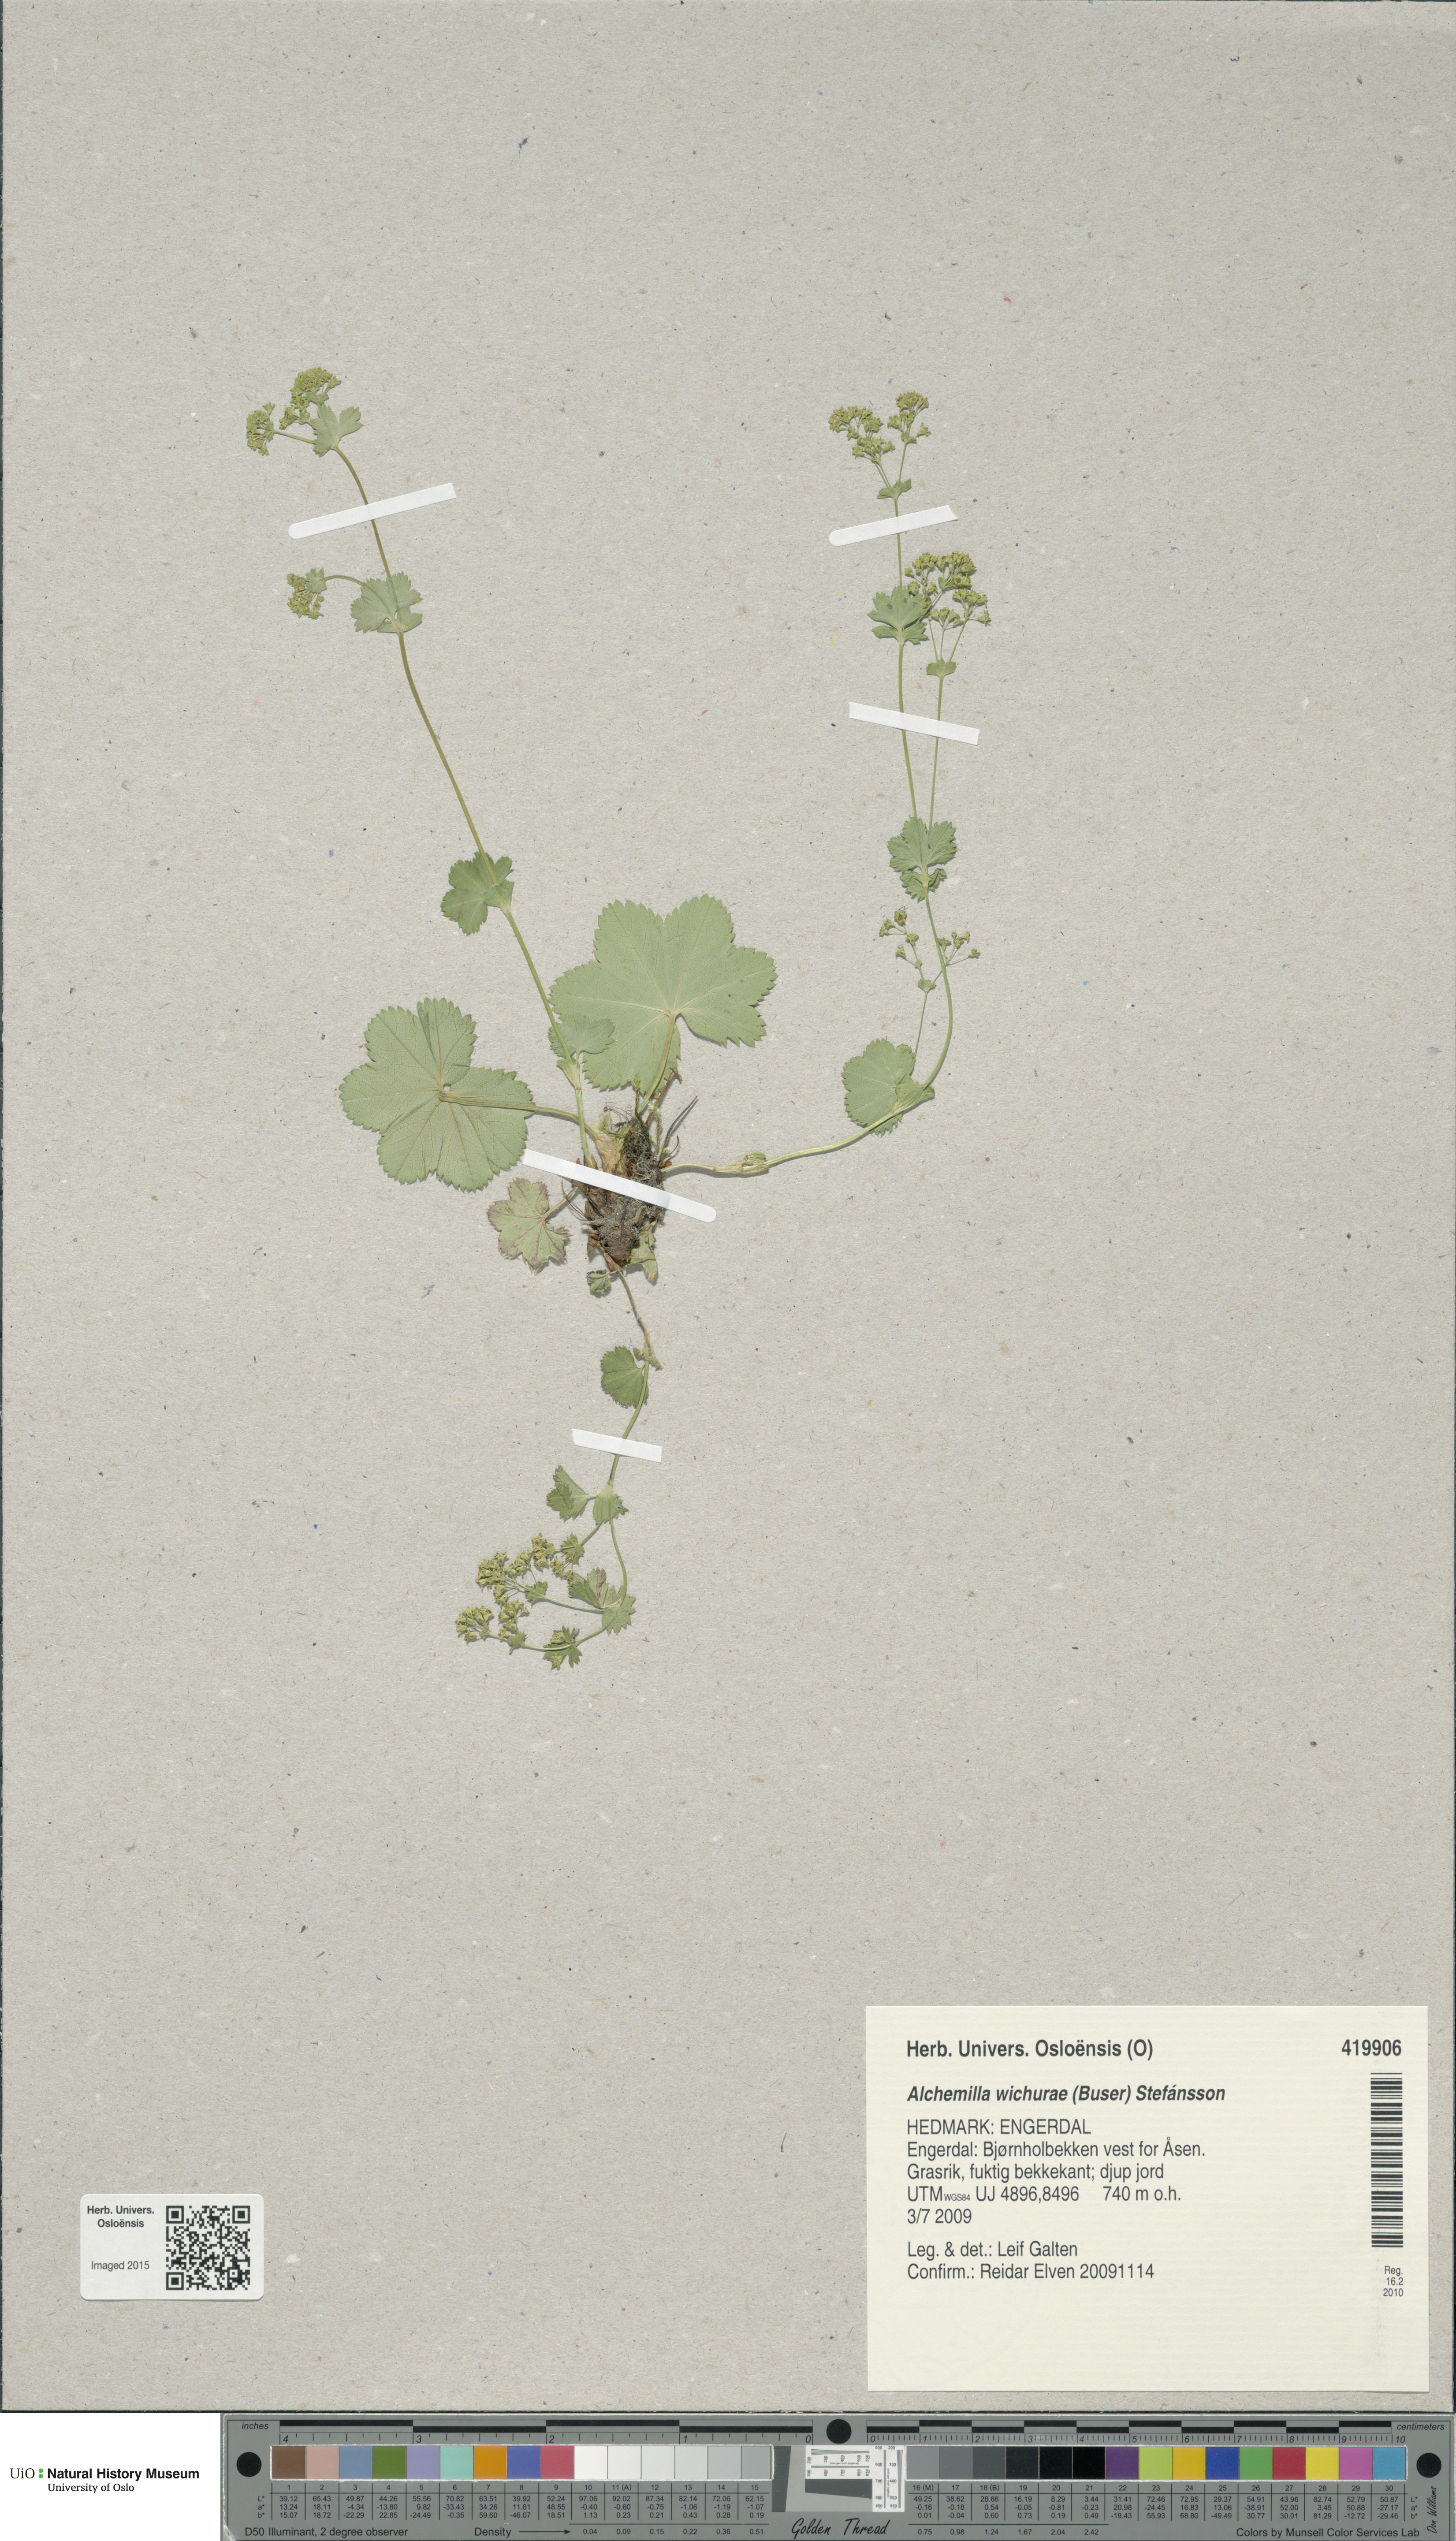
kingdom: Plantae
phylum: Tracheophyta
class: Magnoliopsida
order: Rosales
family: Rosaceae
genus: Alchemilla
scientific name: Alchemilla wichurae
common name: Rock lady's mantle
